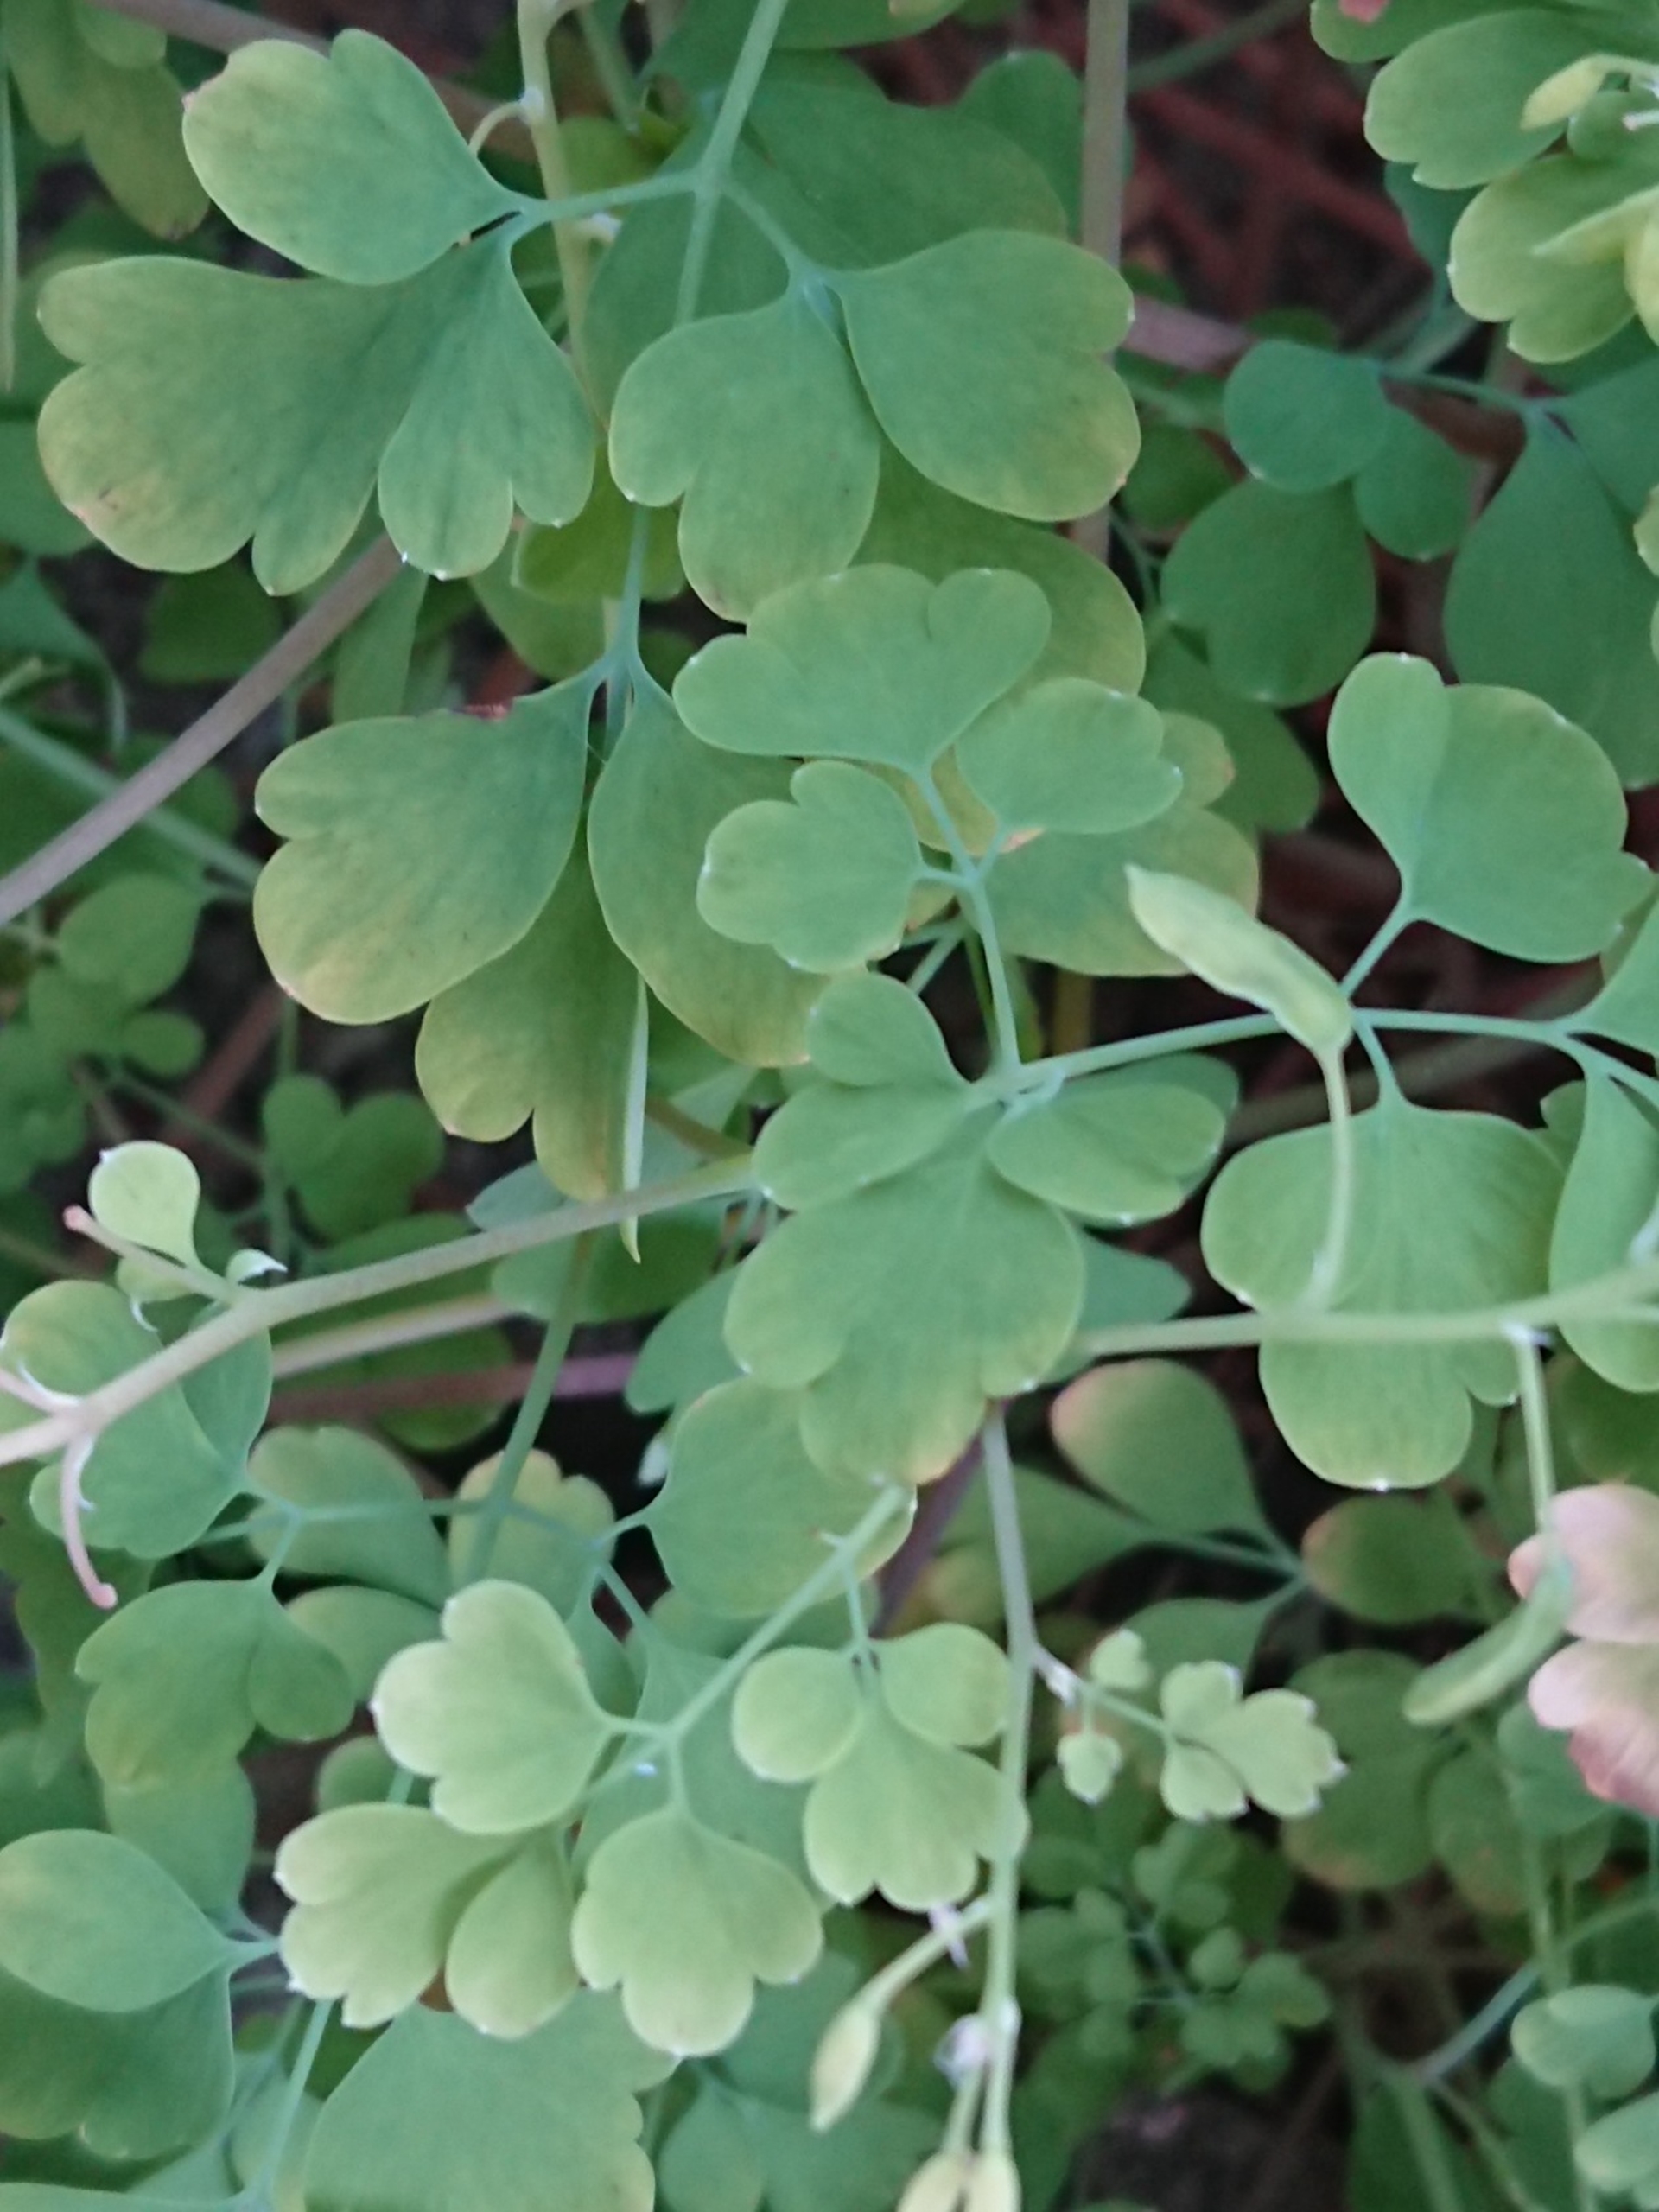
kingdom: Plantae
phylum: Tracheophyta
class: Magnoliopsida
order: Ranunculales
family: Papaveraceae
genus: Pseudofumaria
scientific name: Pseudofumaria lutea
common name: Gul lærkespore
